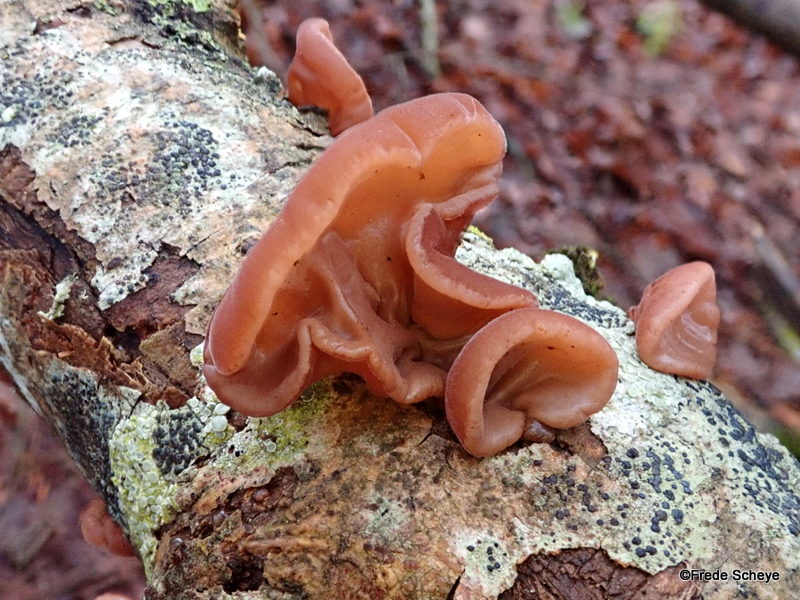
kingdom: Fungi
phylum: Basidiomycota
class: Agaricomycetes
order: Auriculariales
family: Auriculariaceae
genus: Auricularia
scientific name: Auricularia auricula-judae
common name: almindelig judasøre
